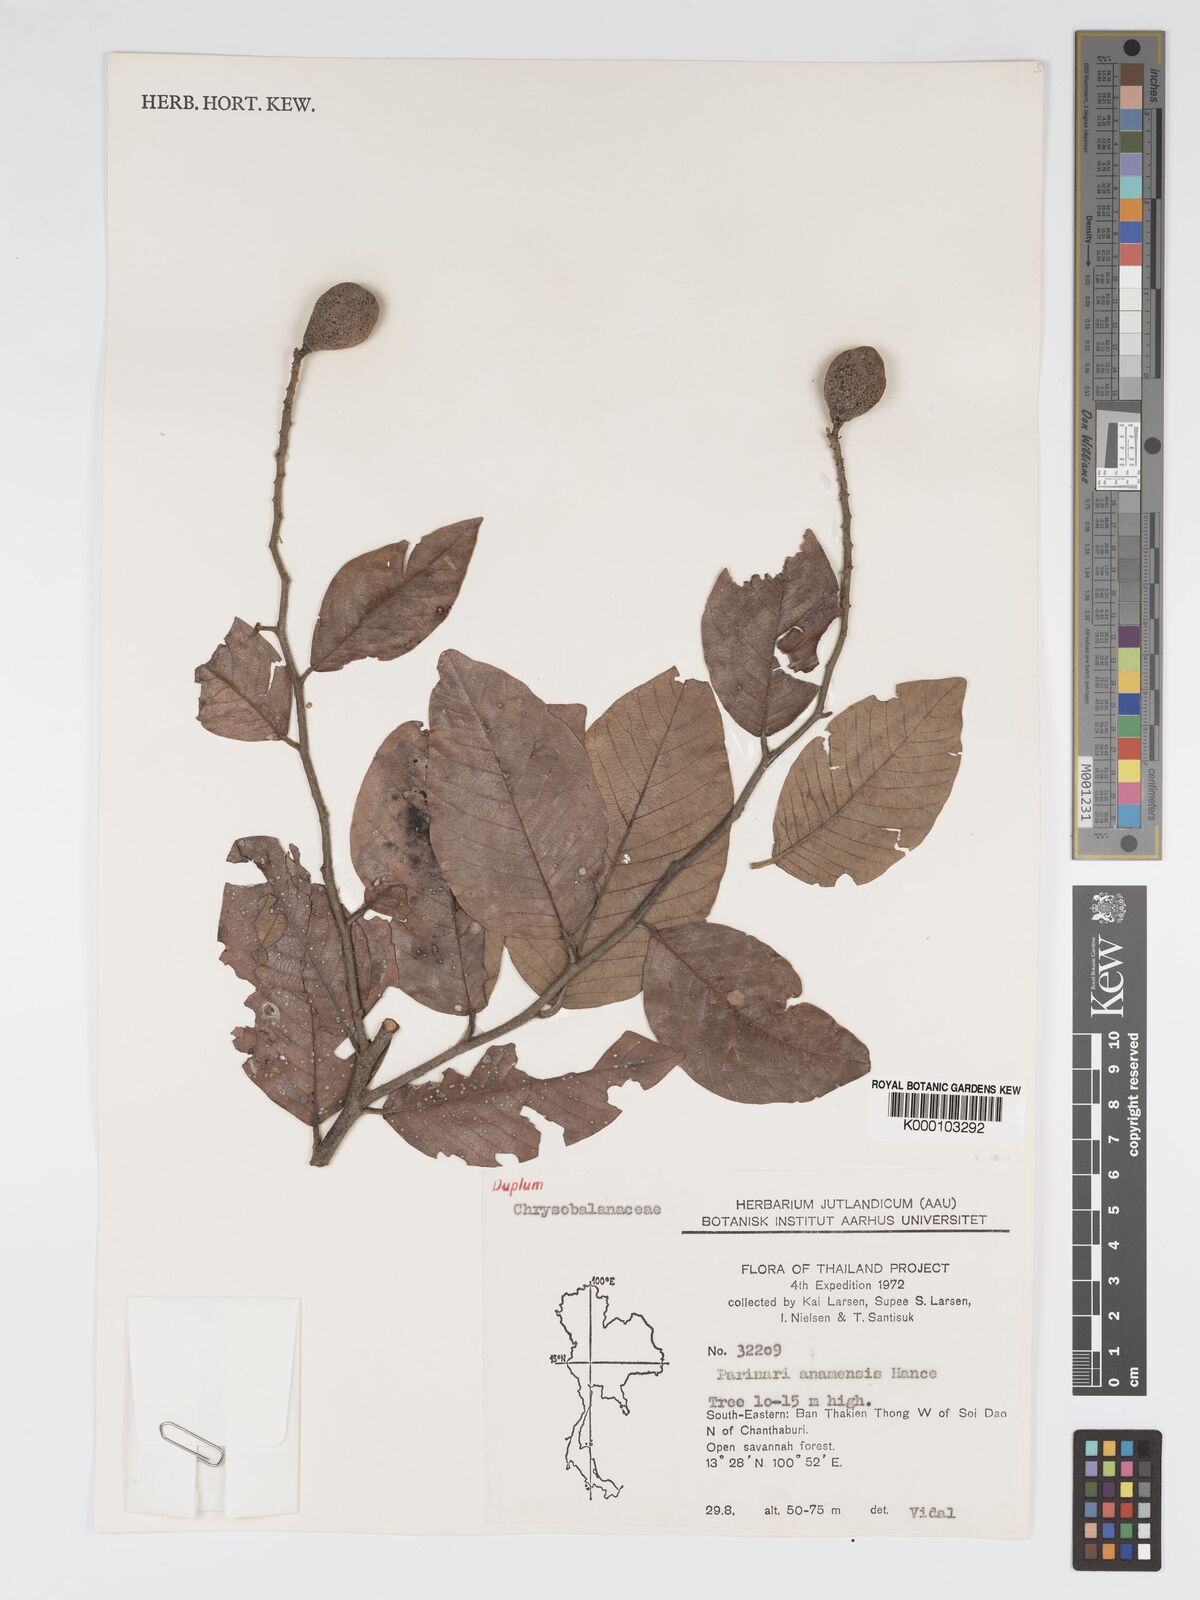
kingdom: Plantae
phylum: Tracheophyta
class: Magnoliopsida
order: Malpighiales
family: Chrysobalanaceae
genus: Parinari
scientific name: Parinari anamensis
